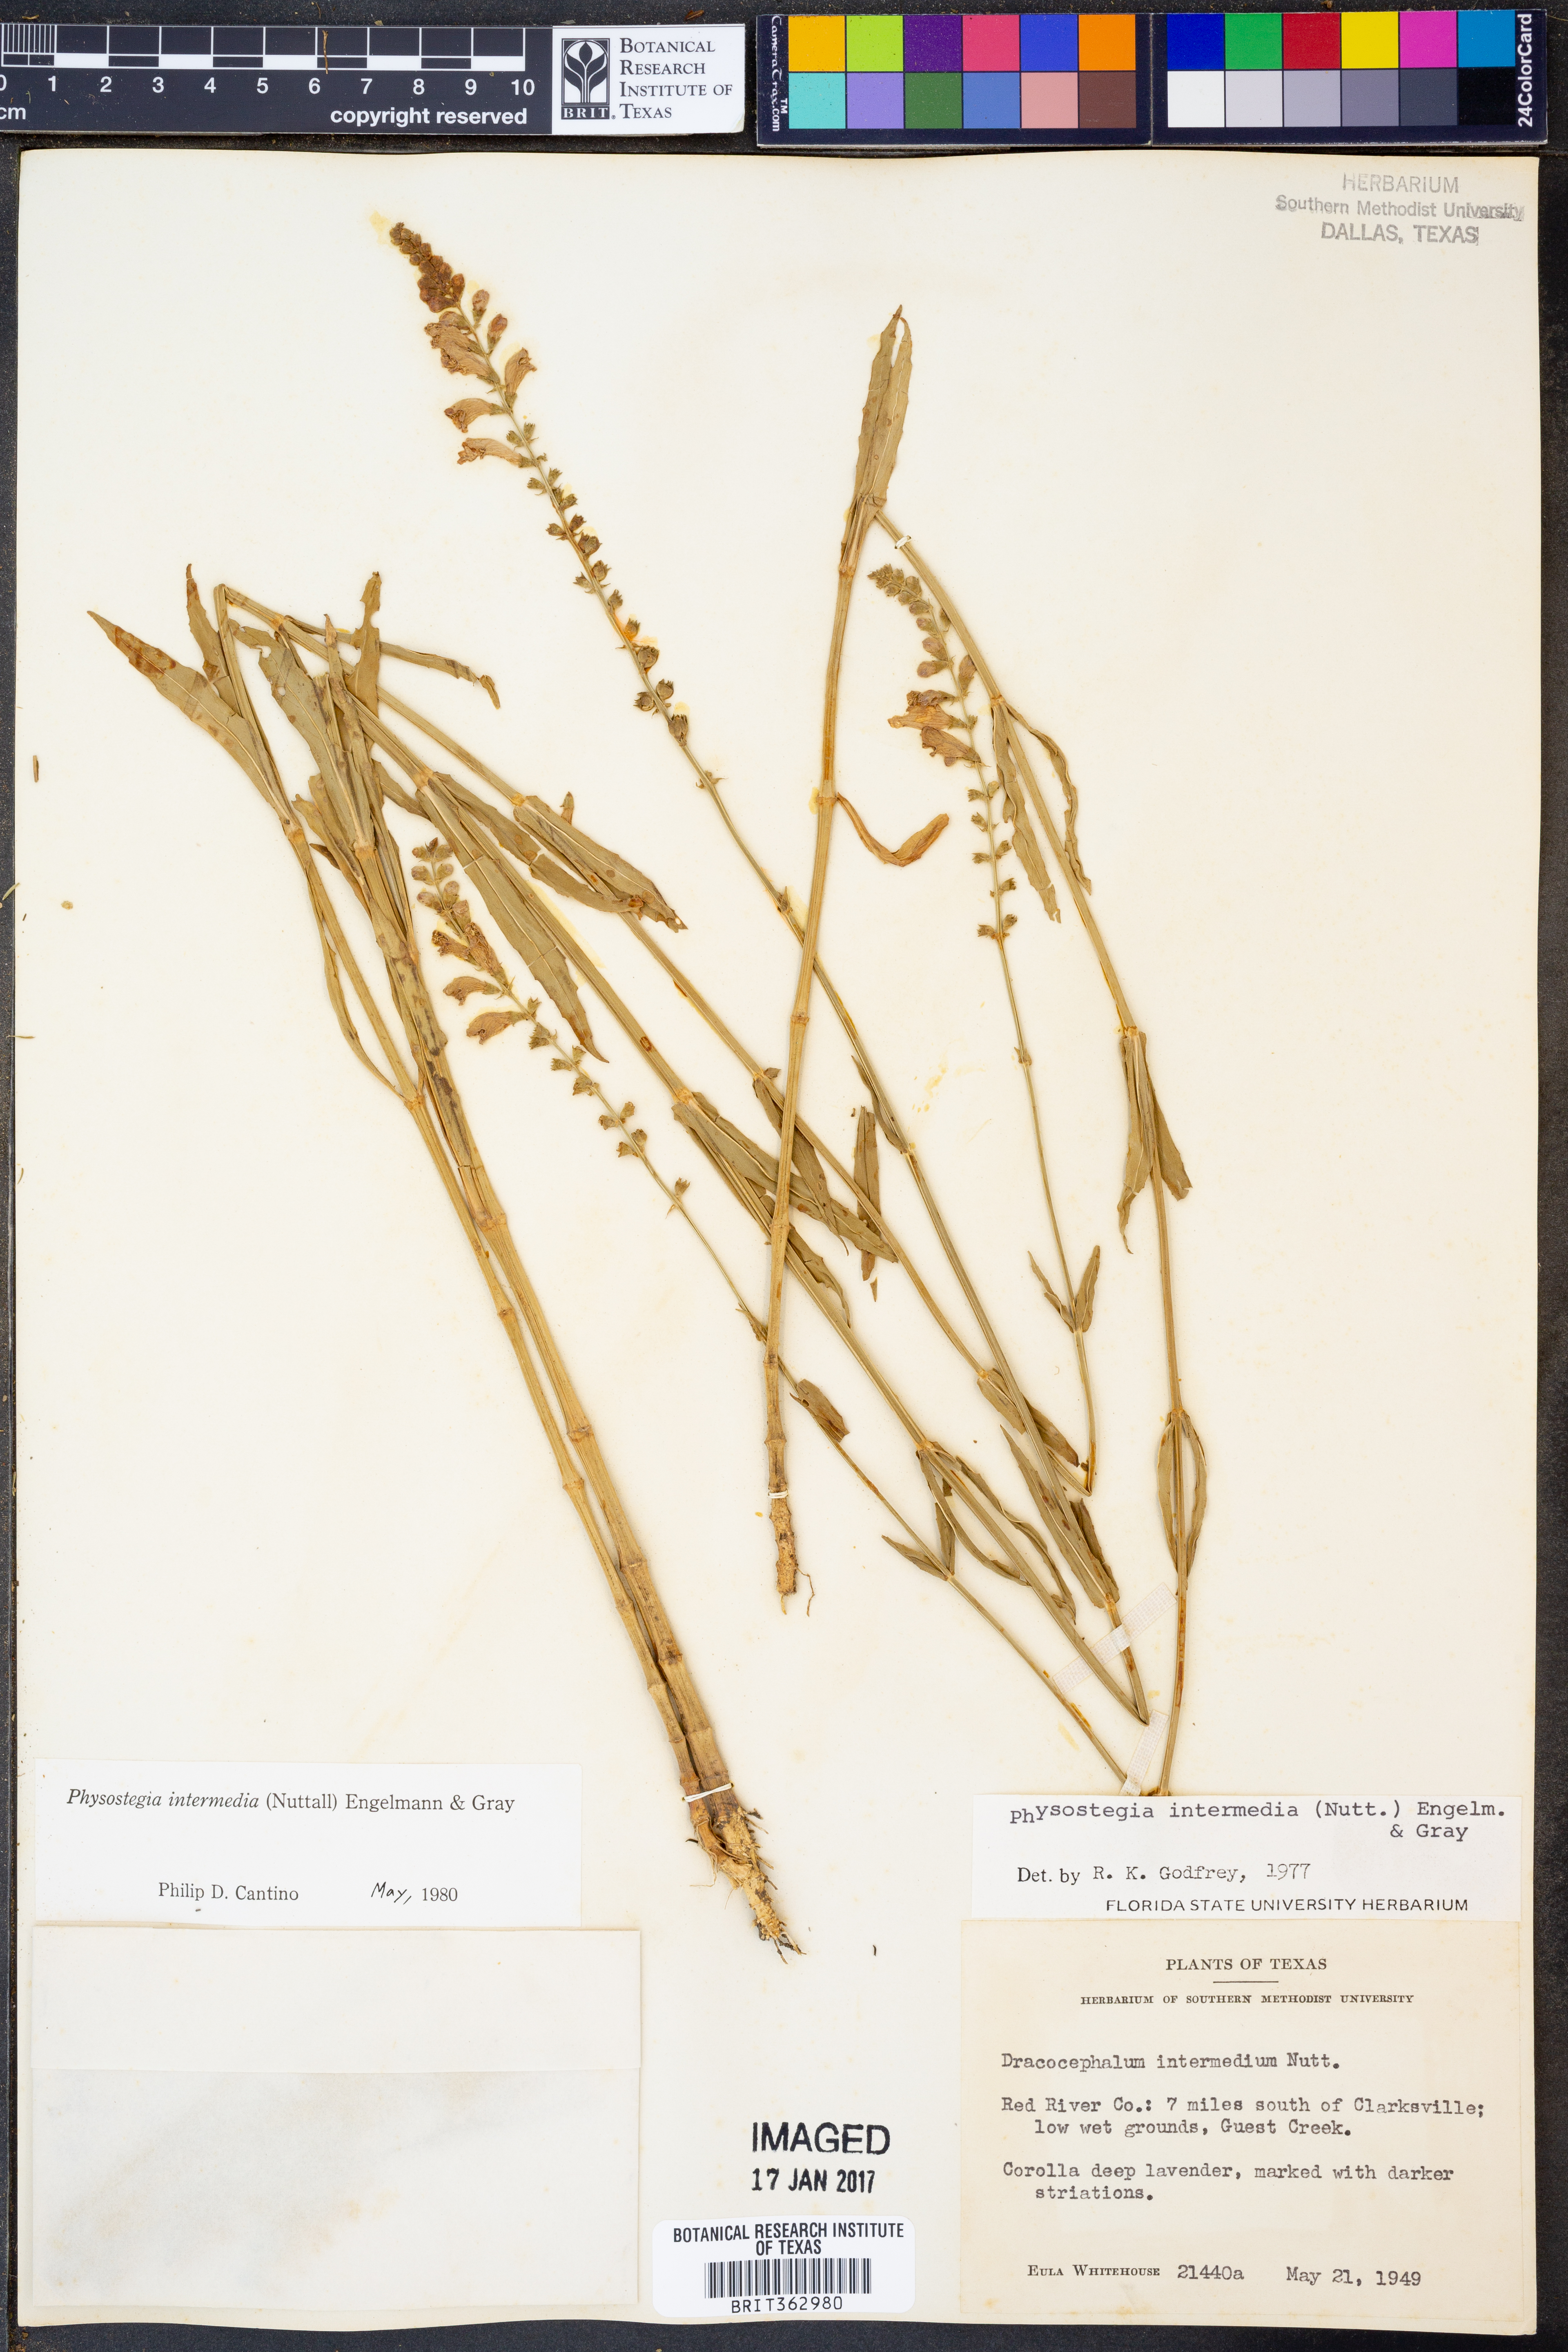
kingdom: Plantae
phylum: Tracheophyta
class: Magnoliopsida
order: Lamiales
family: Lamiaceae
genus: Physostegia
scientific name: Physostegia intermedia
